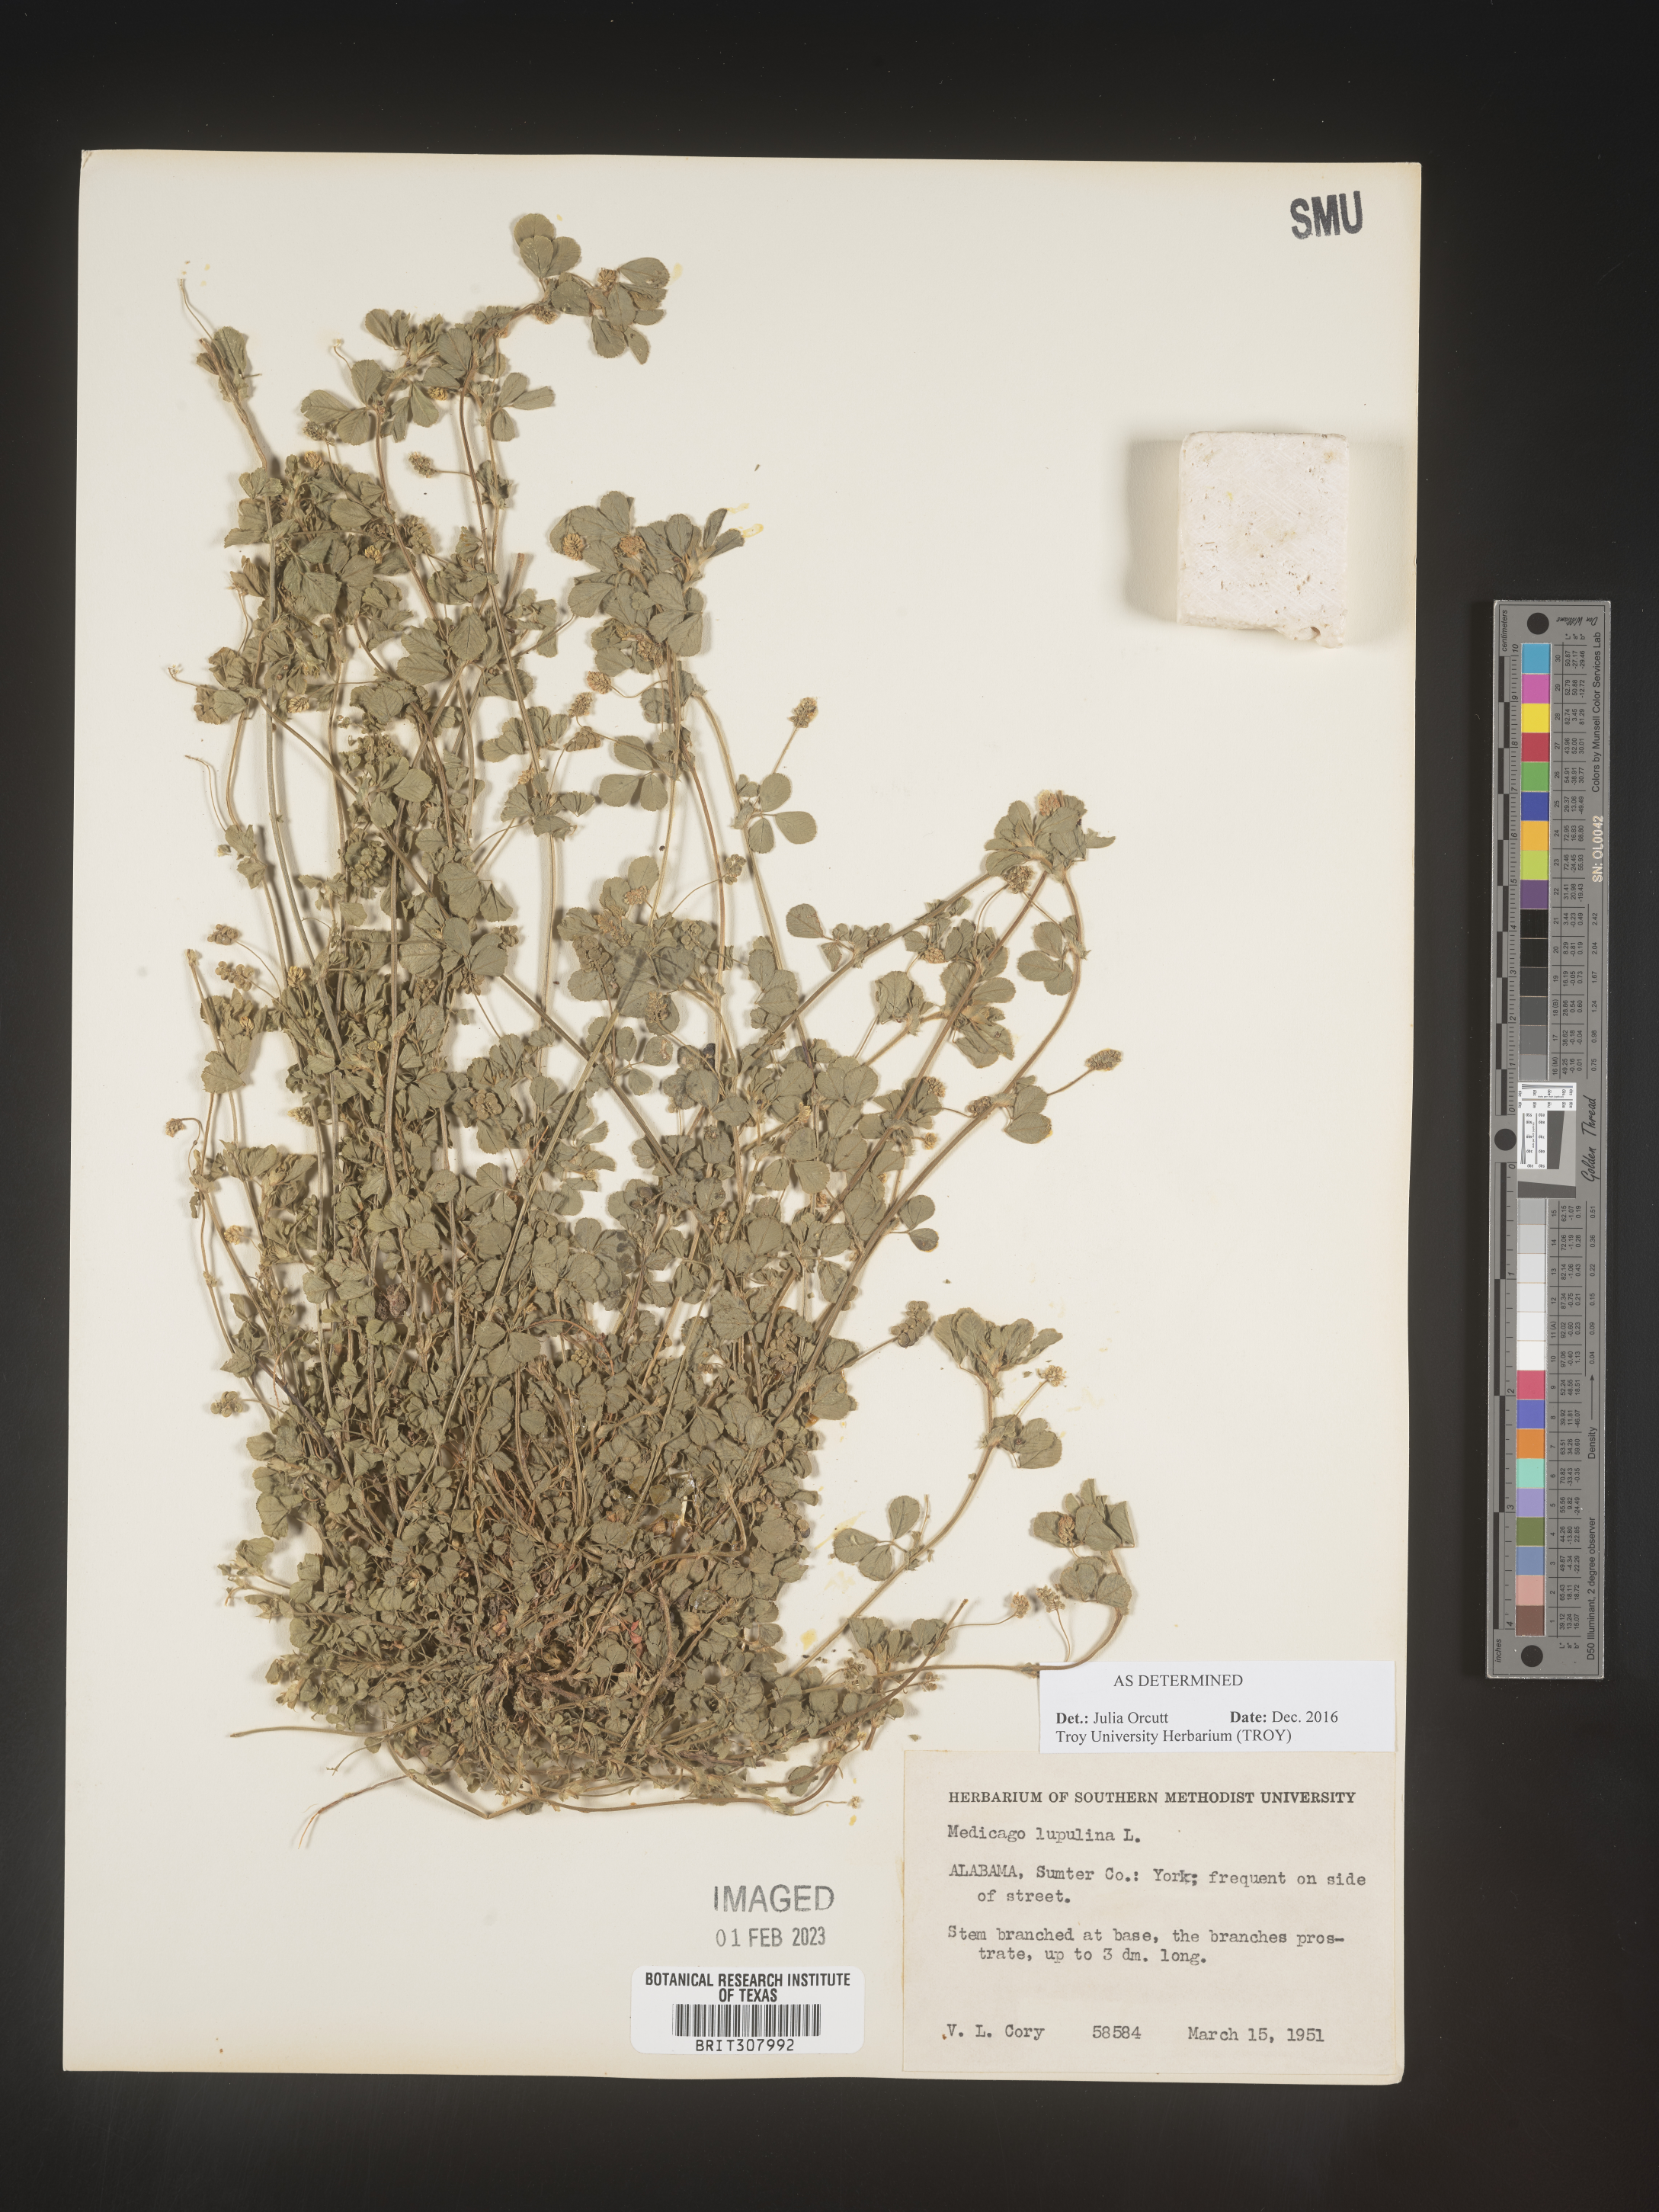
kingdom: Plantae
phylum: Tracheophyta
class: Magnoliopsida
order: Fabales
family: Fabaceae
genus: Medicago
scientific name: Medicago lupulina
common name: Black medick
